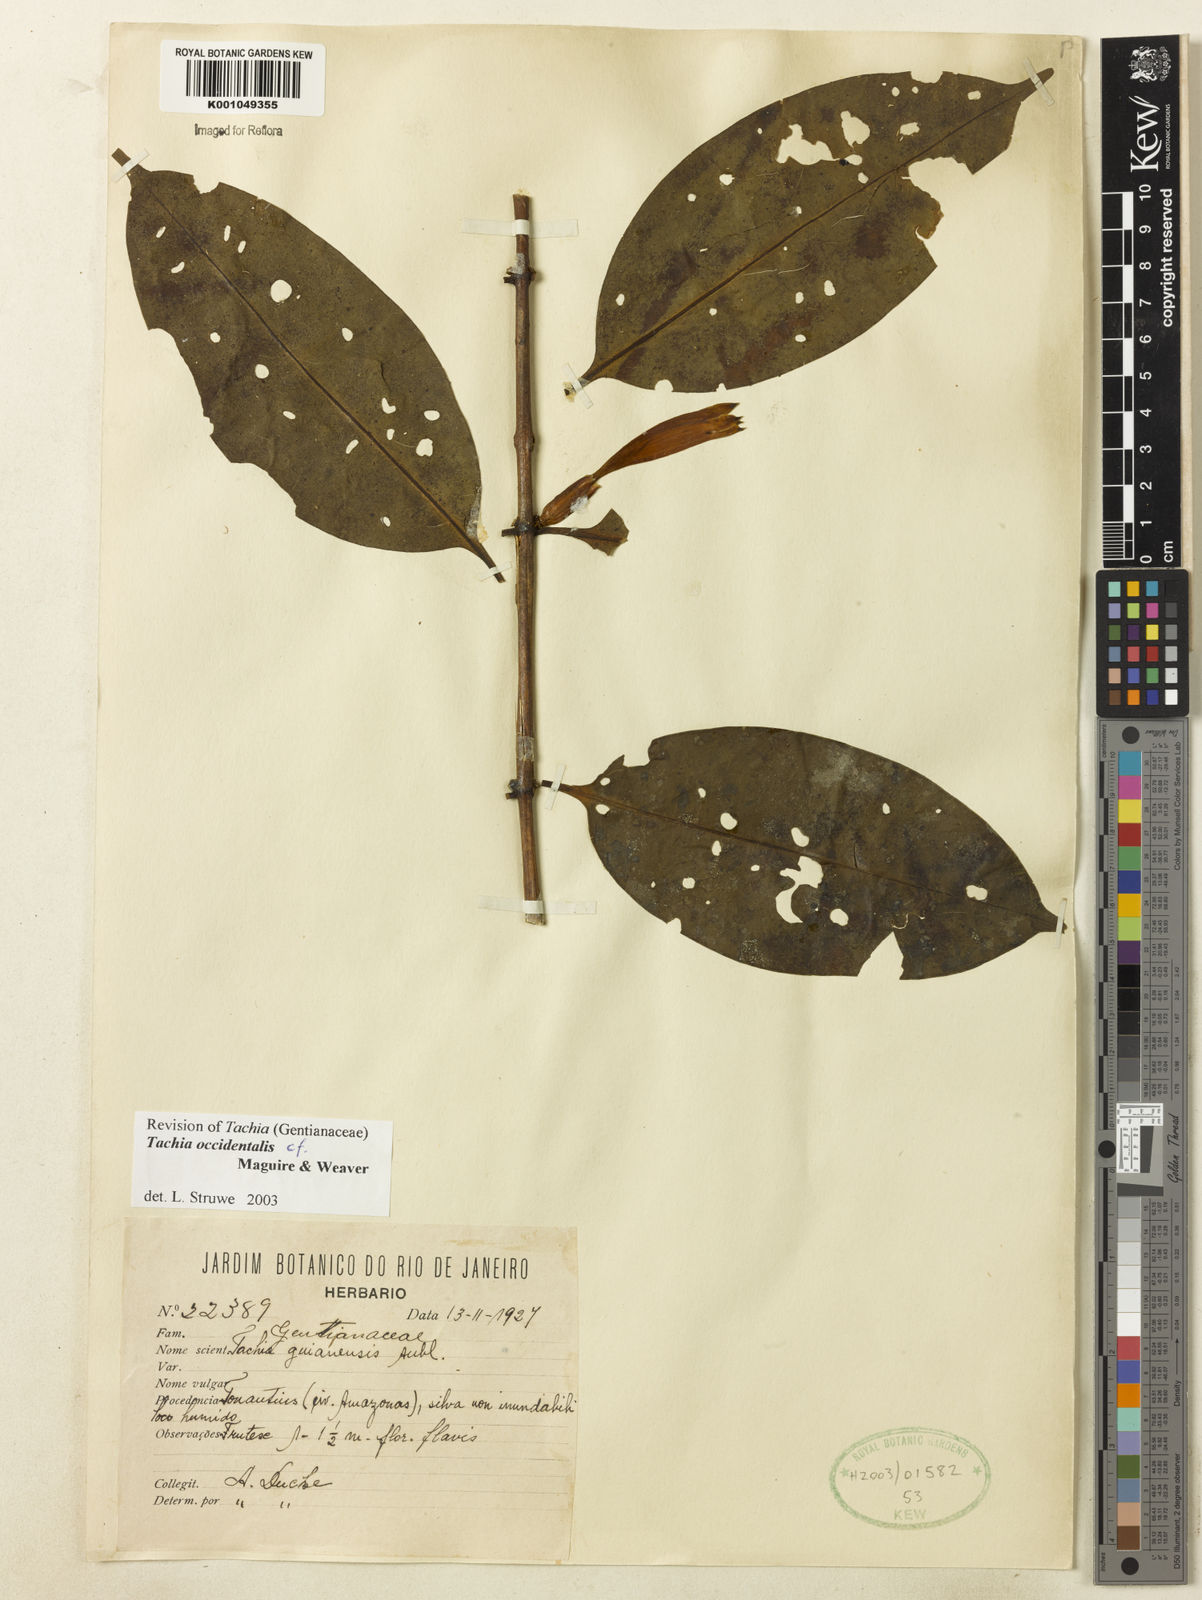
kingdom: Plantae
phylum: Tracheophyta
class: Magnoliopsida
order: Gentianales
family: Gentianaceae
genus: Tachia
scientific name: Tachia orientalis
